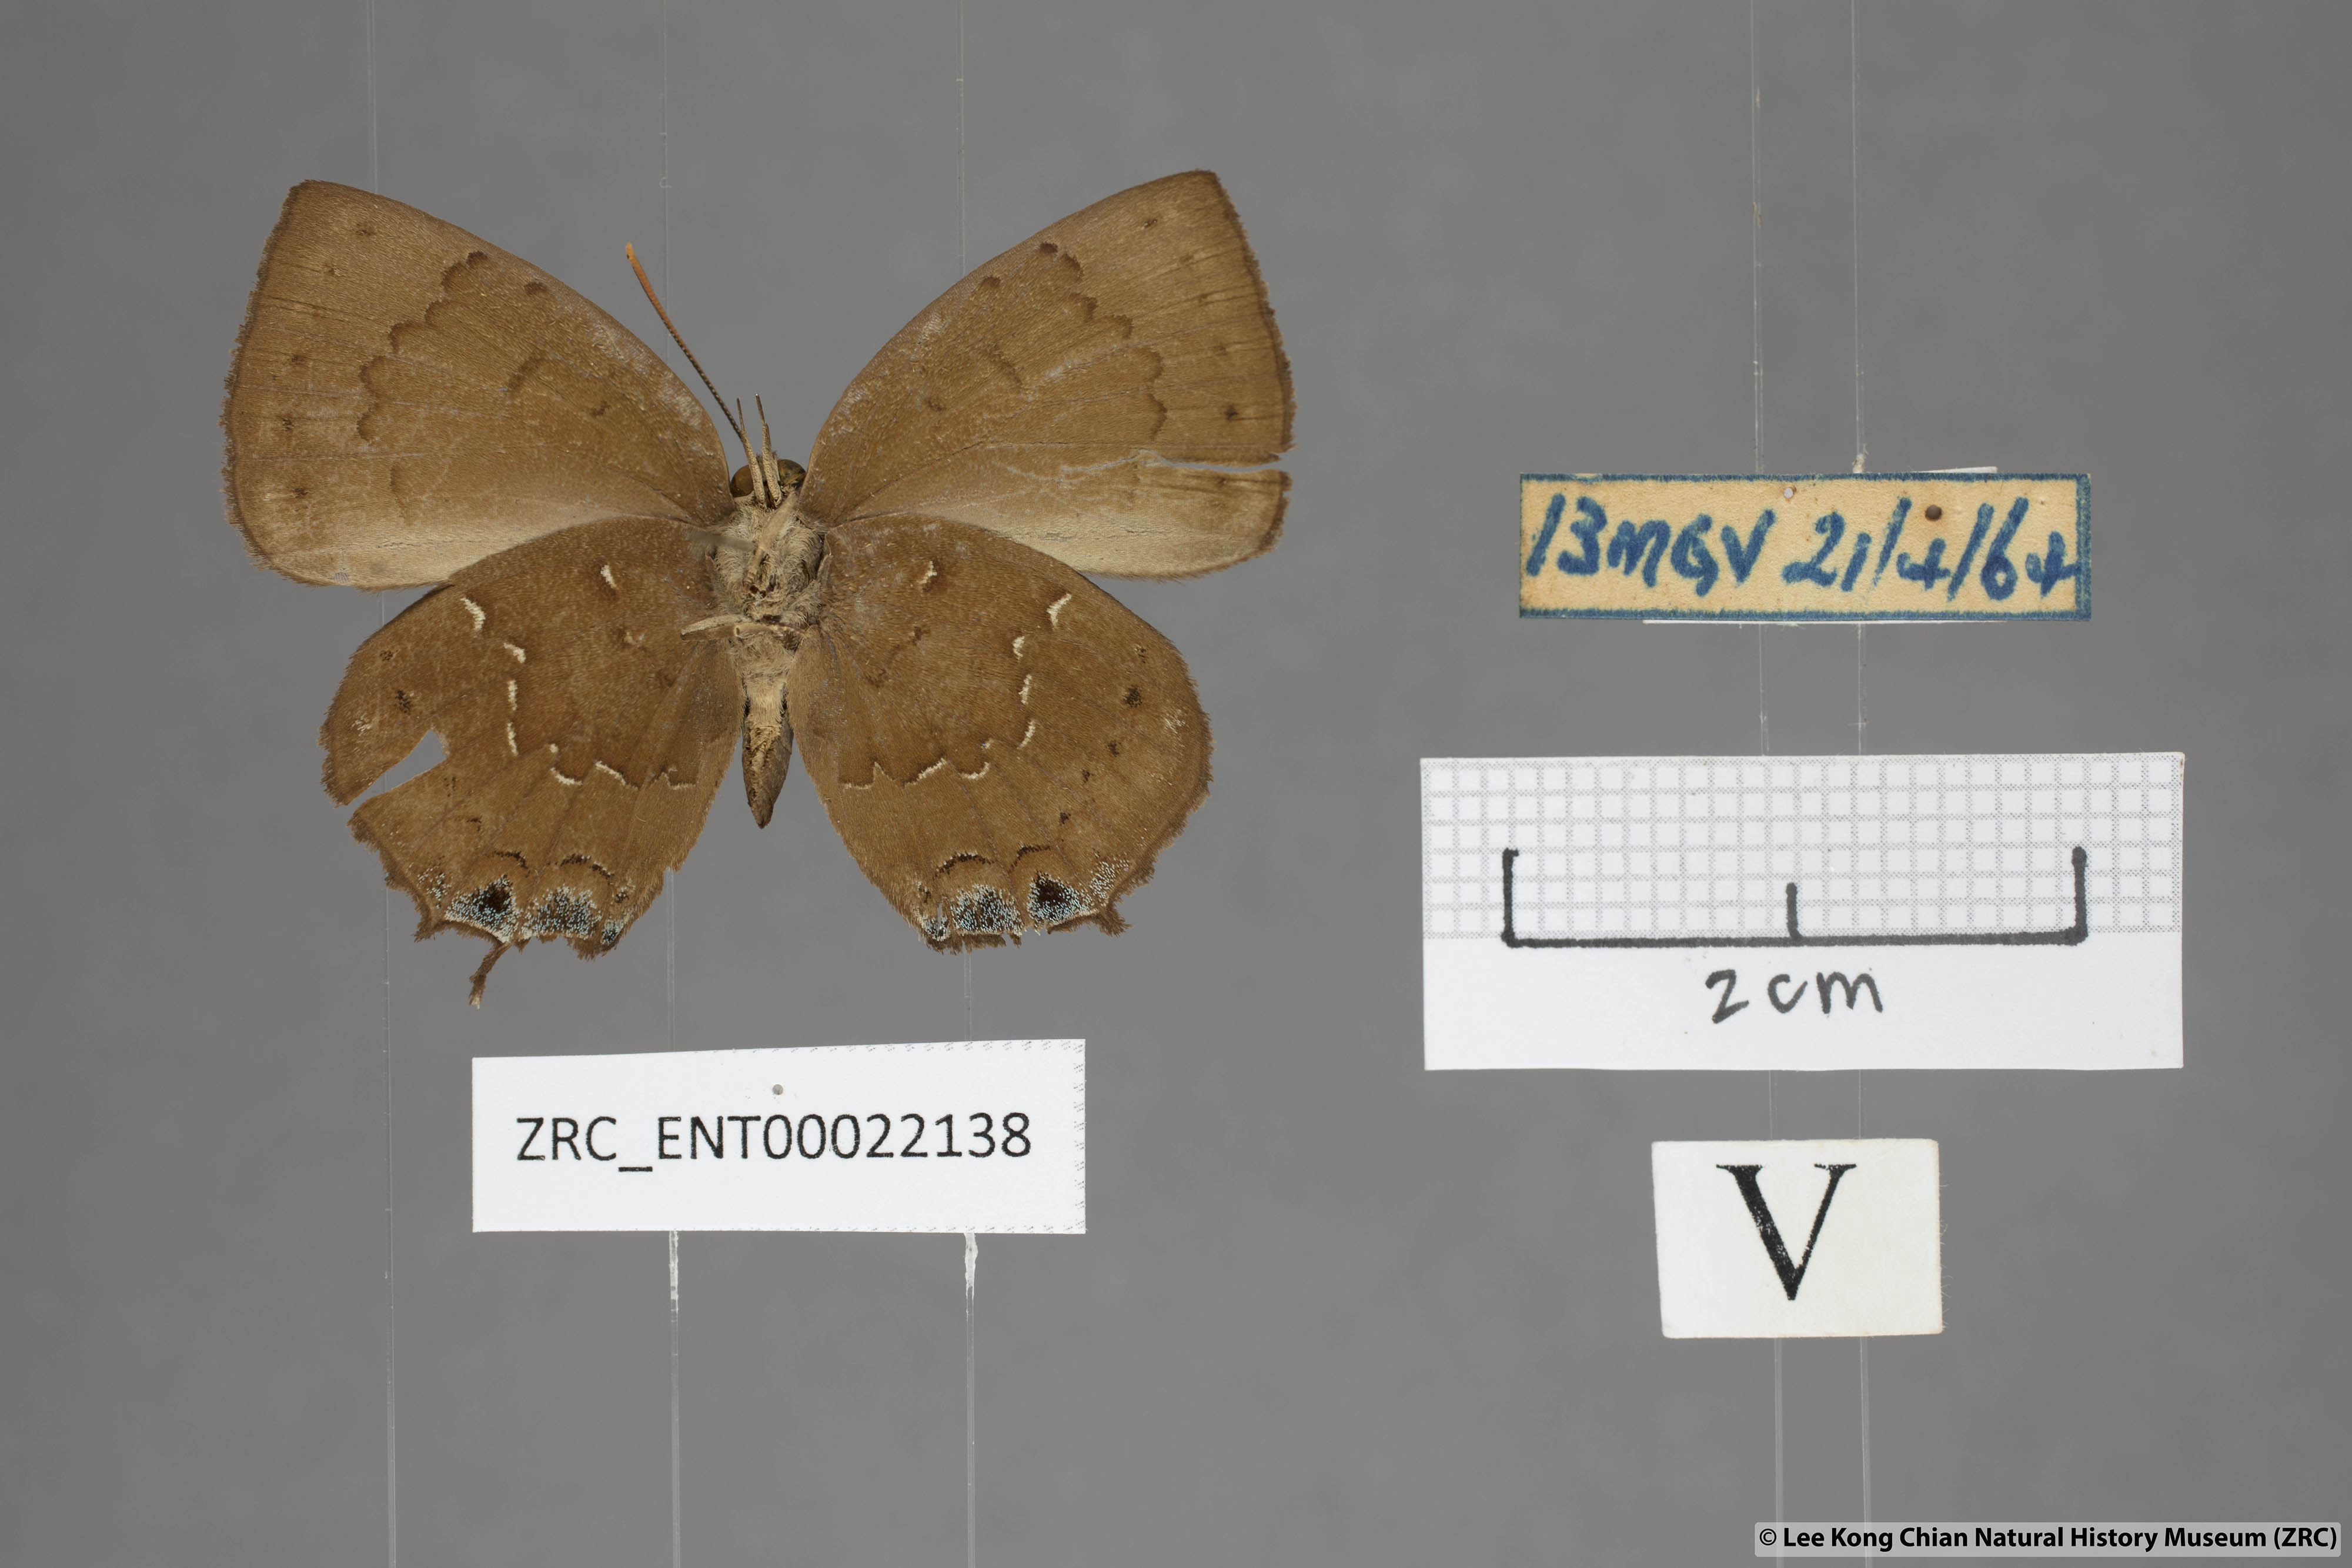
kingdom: Animalia
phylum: Arthropoda
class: Insecta
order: Lepidoptera
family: Lycaenidae
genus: Surendra
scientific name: Surendra vivarna
